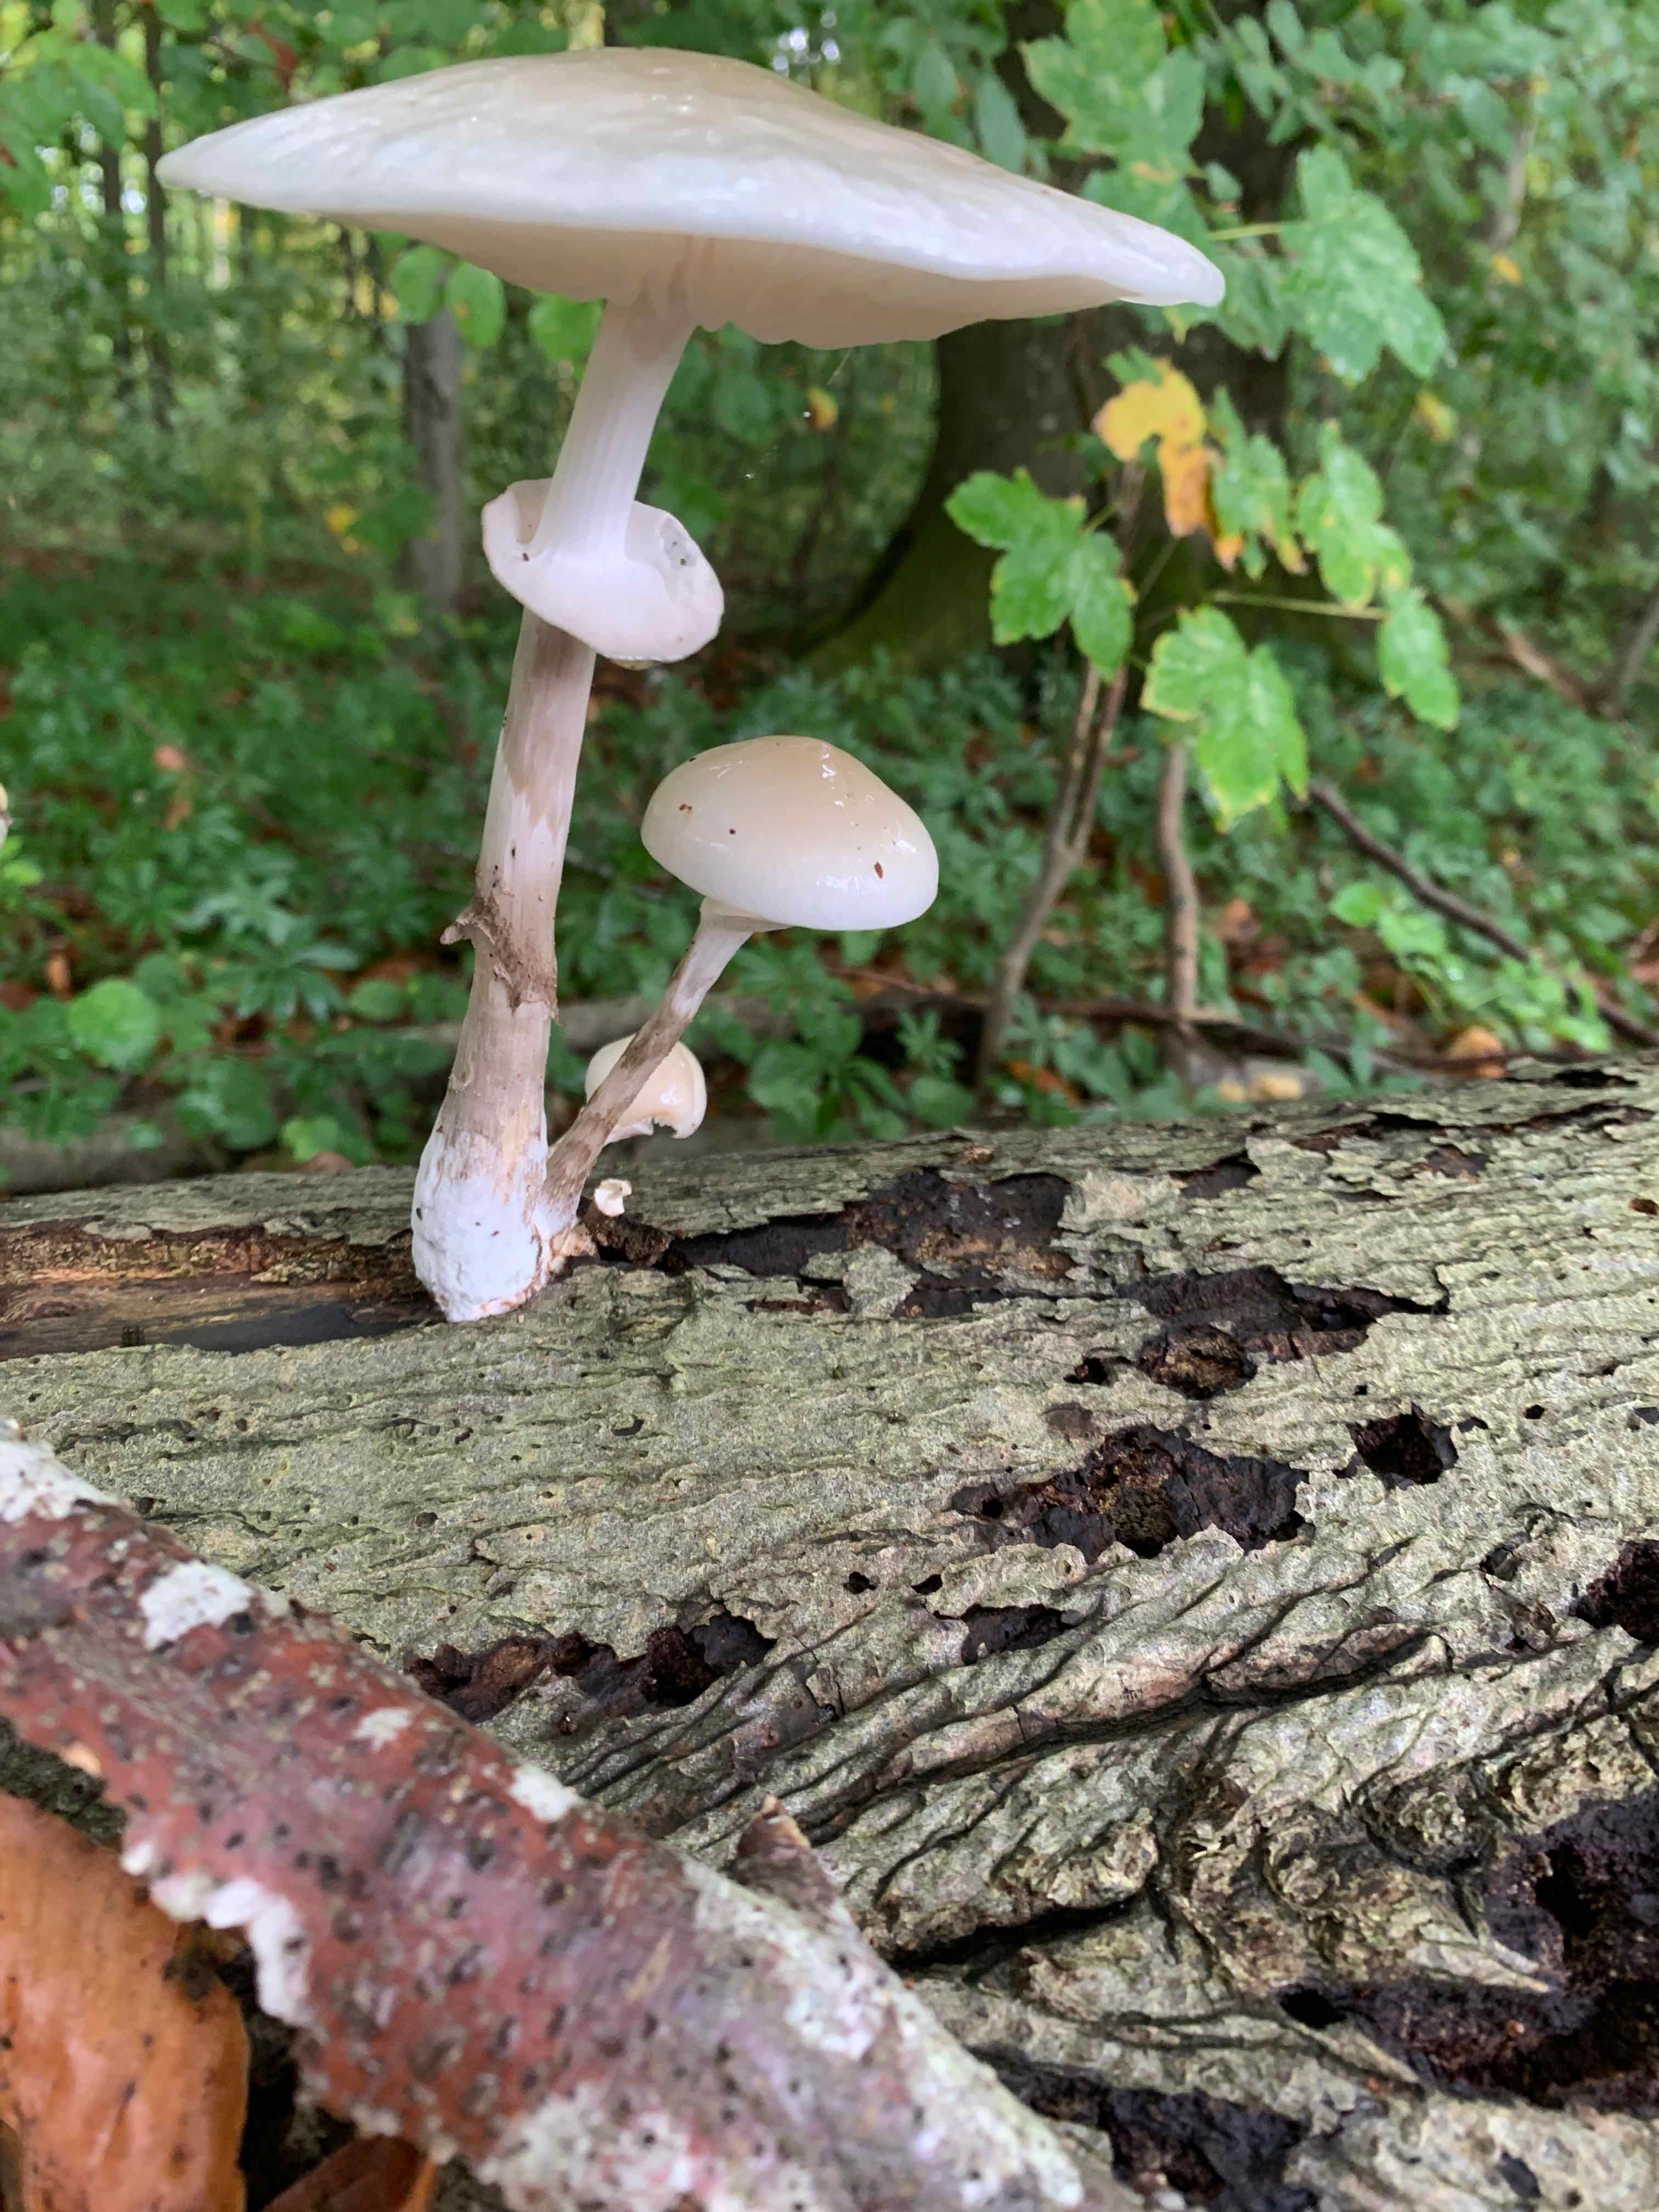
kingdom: Fungi
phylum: Basidiomycota
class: Agaricomycetes
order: Agaricales
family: Physalacriaceae
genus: Mucidula
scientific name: Mucidula mucida
